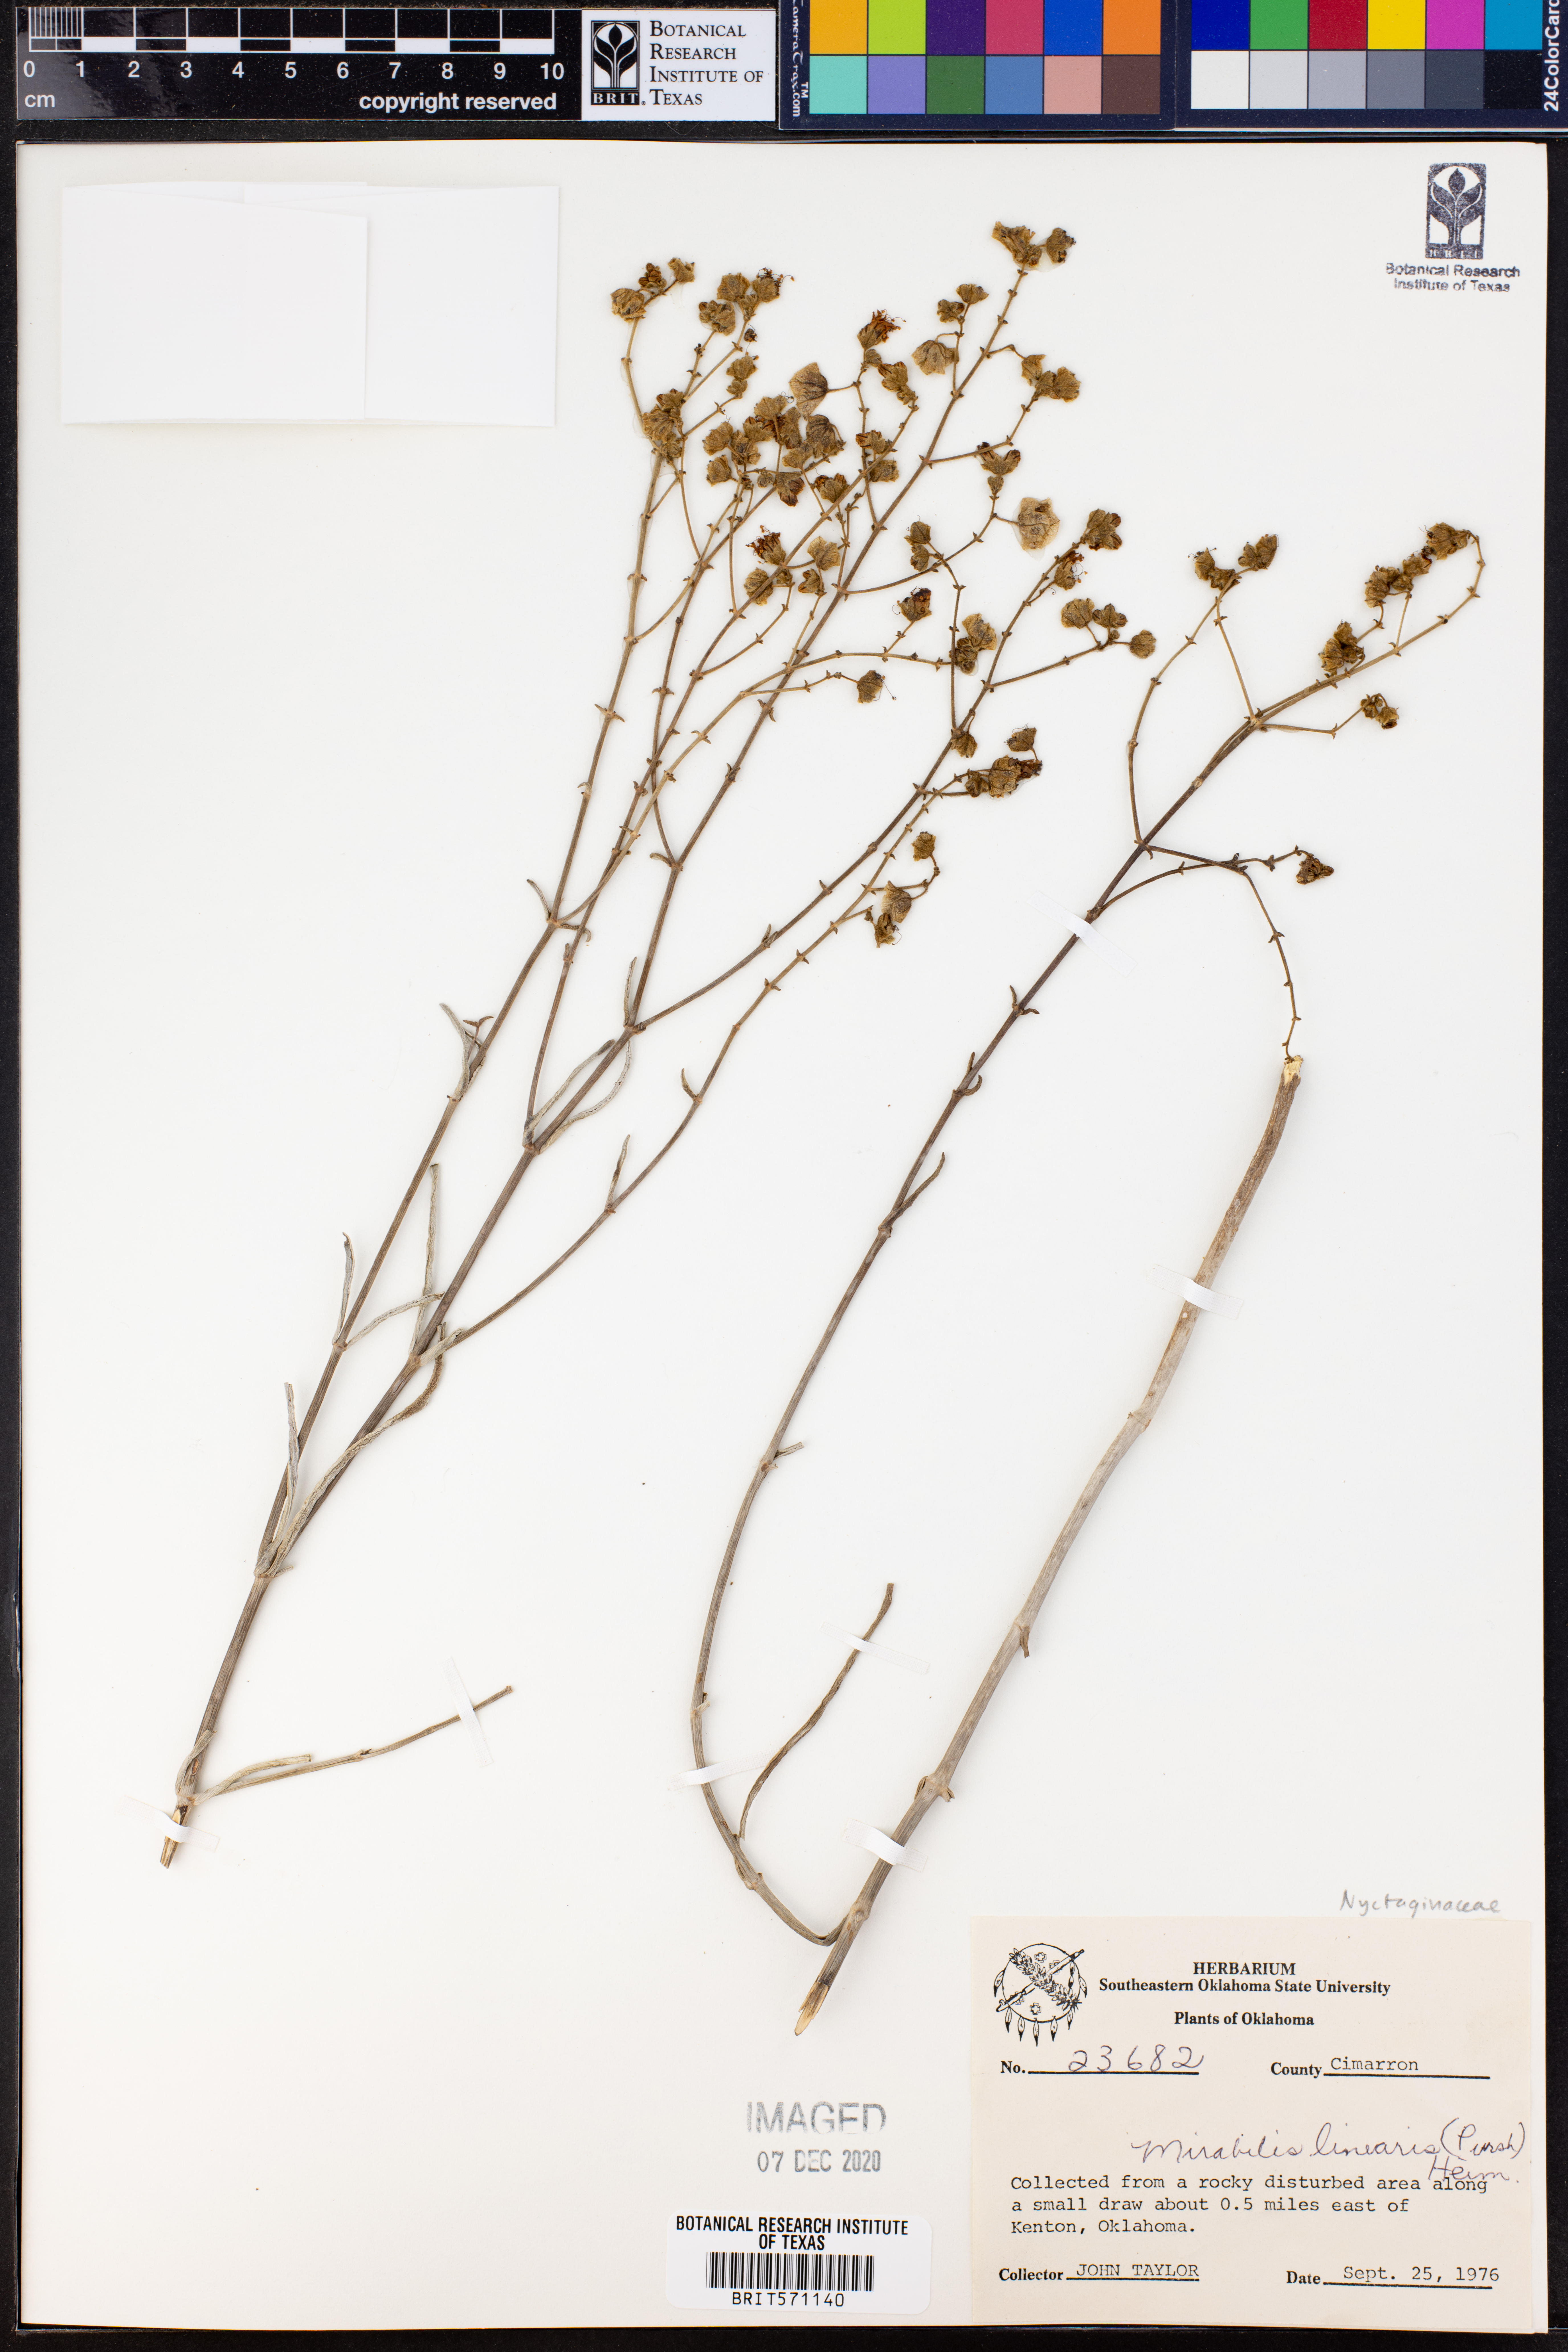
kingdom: Plantae
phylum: Tracheophyta
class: Magnoliopsida
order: Caryophyllales
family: Nyctaginaceae
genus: Mirabilis
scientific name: Mirabilis linearis
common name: Linear-leaved four-o'clock
